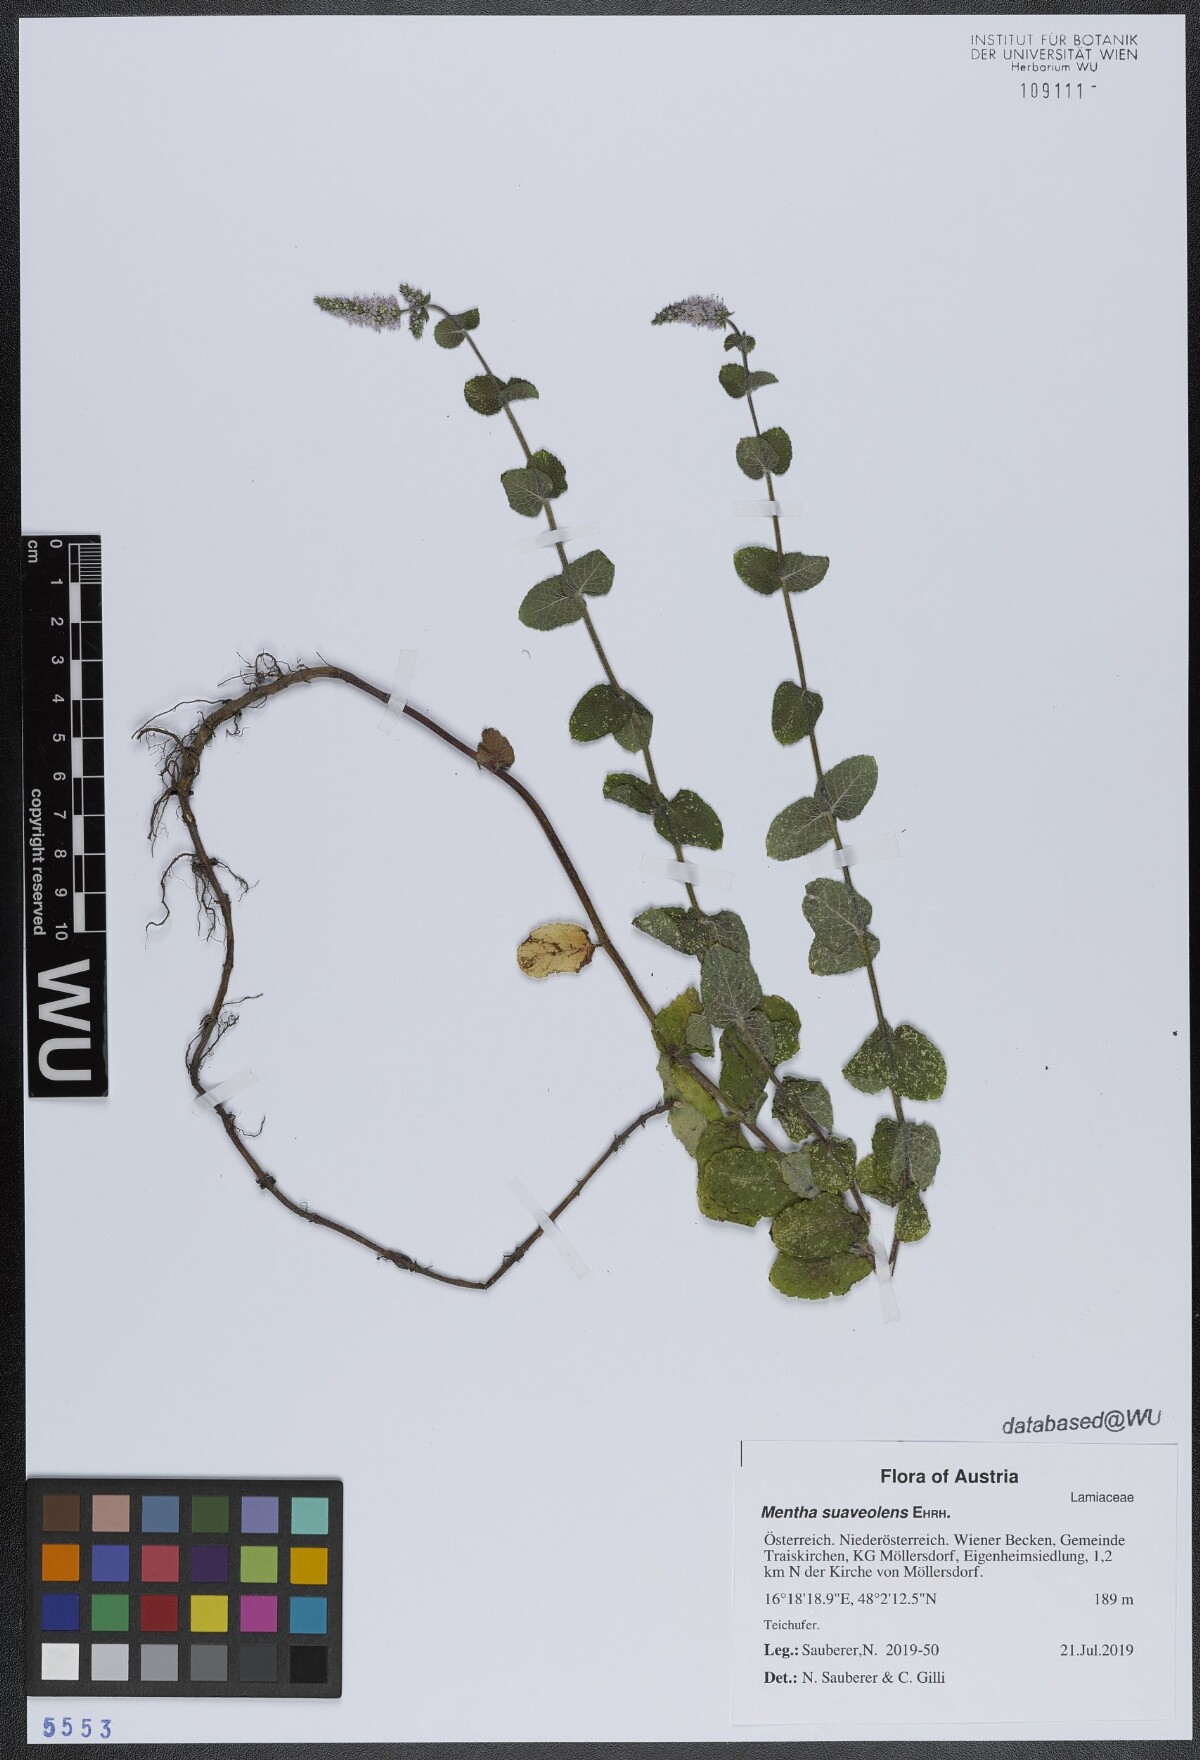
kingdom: Plantae
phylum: Tracheophyta
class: Magnoliopsida
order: Lamiales
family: Lamiaceae
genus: Mentha
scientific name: Mentha suaveolens
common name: Apple mint
